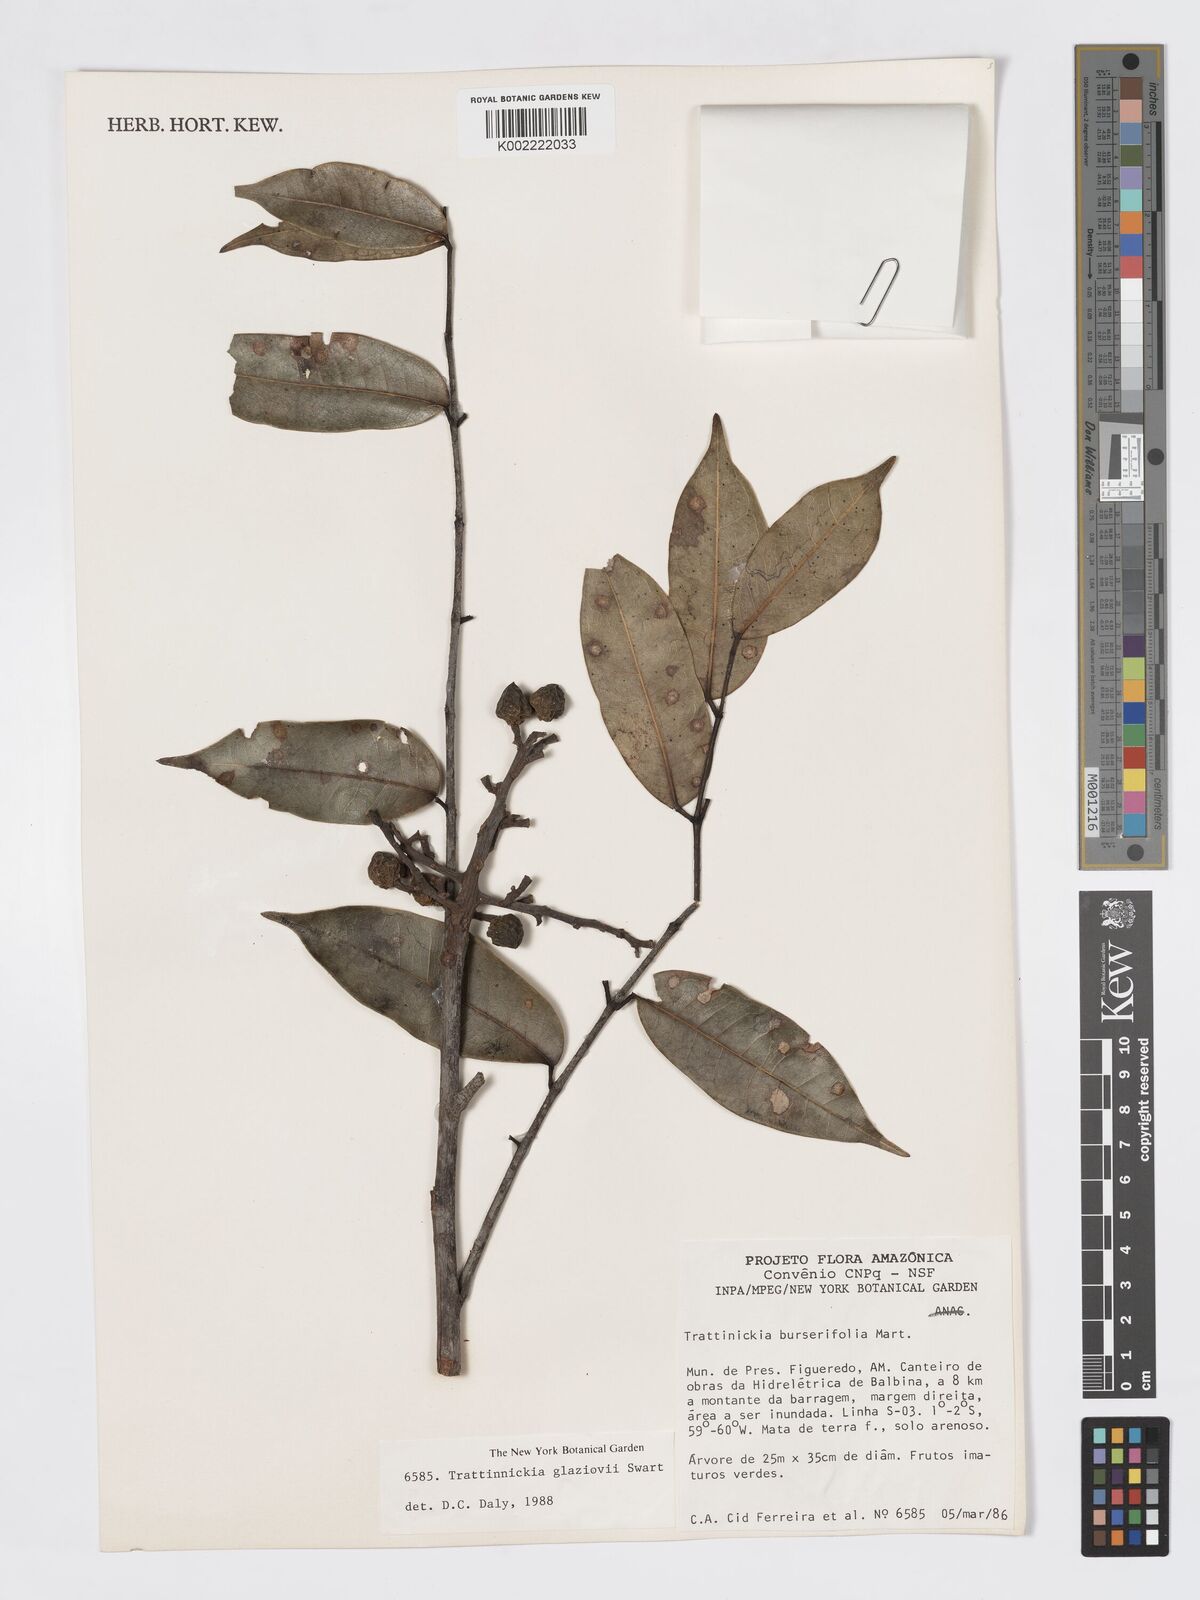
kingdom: Plantae
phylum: Tracheophyta
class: Magnoliopsida
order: Sapindales
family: Burseraceae
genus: Trattinnickia
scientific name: Trattinnickia glaziovii
